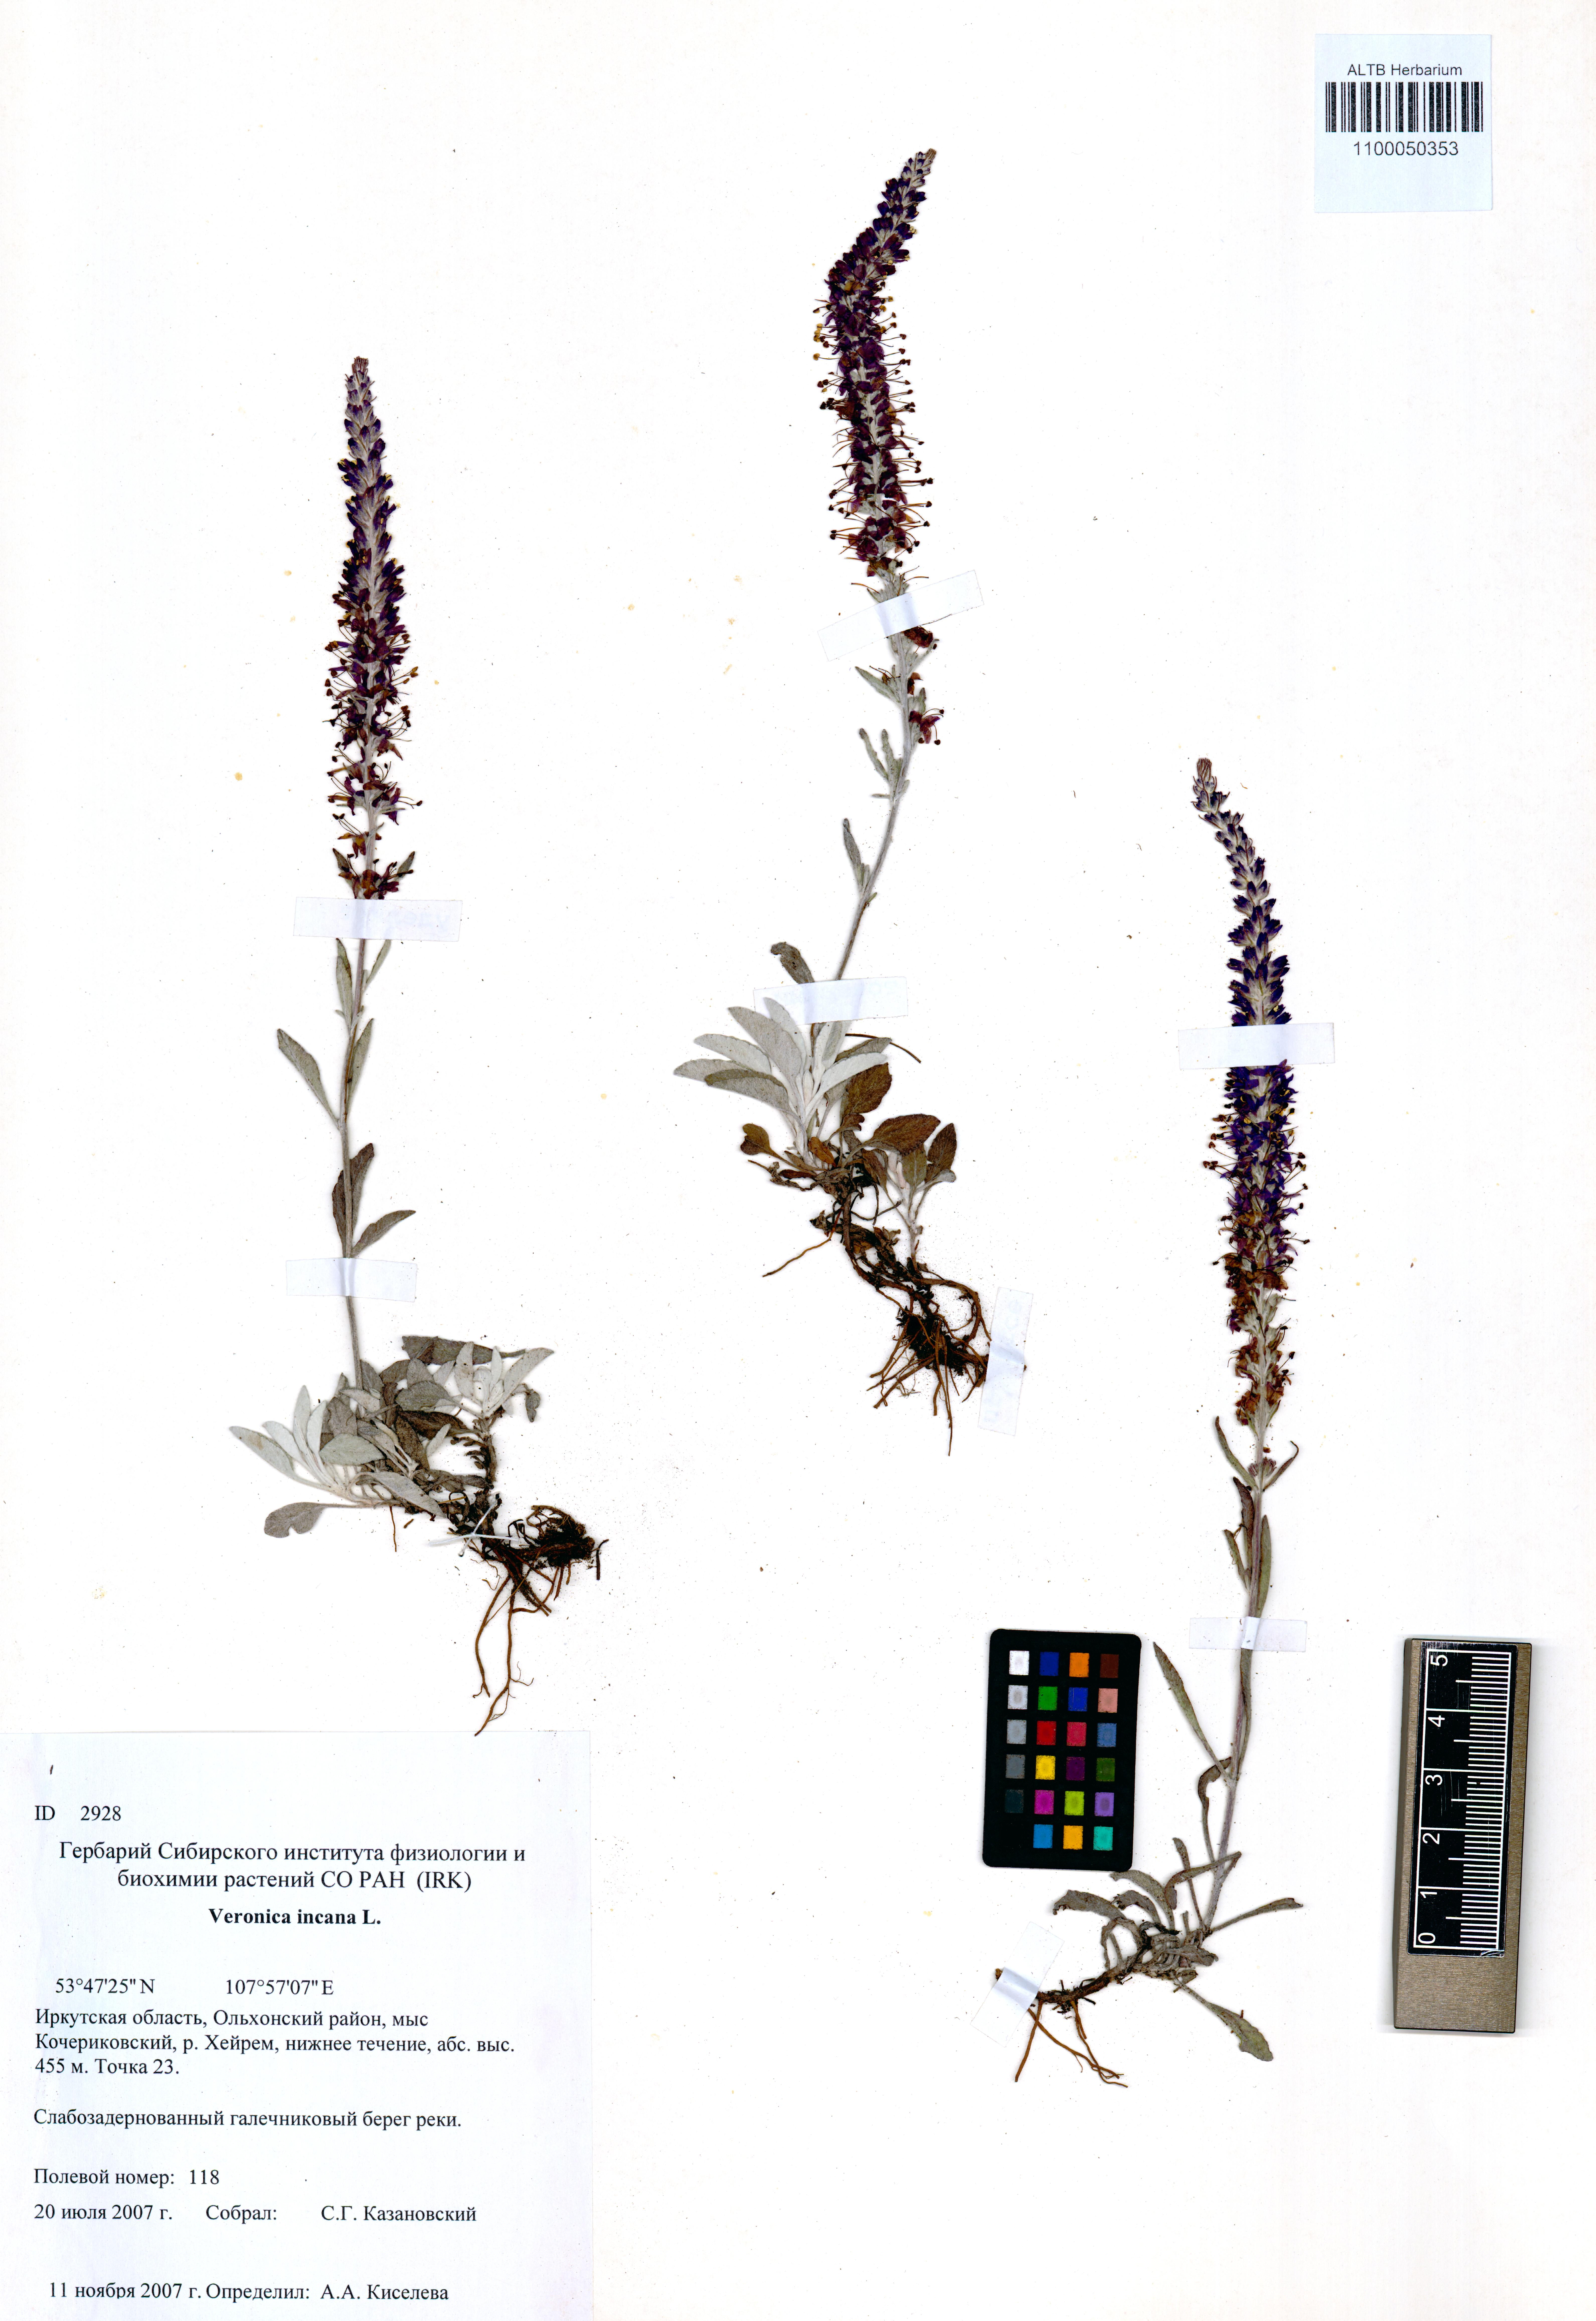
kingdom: Plantae
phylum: Tracheophyta
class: Magnoliopsida
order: Lamiales
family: Plantaginaceae
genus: Veronica
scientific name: Veronica incana
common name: Silver speedwell
